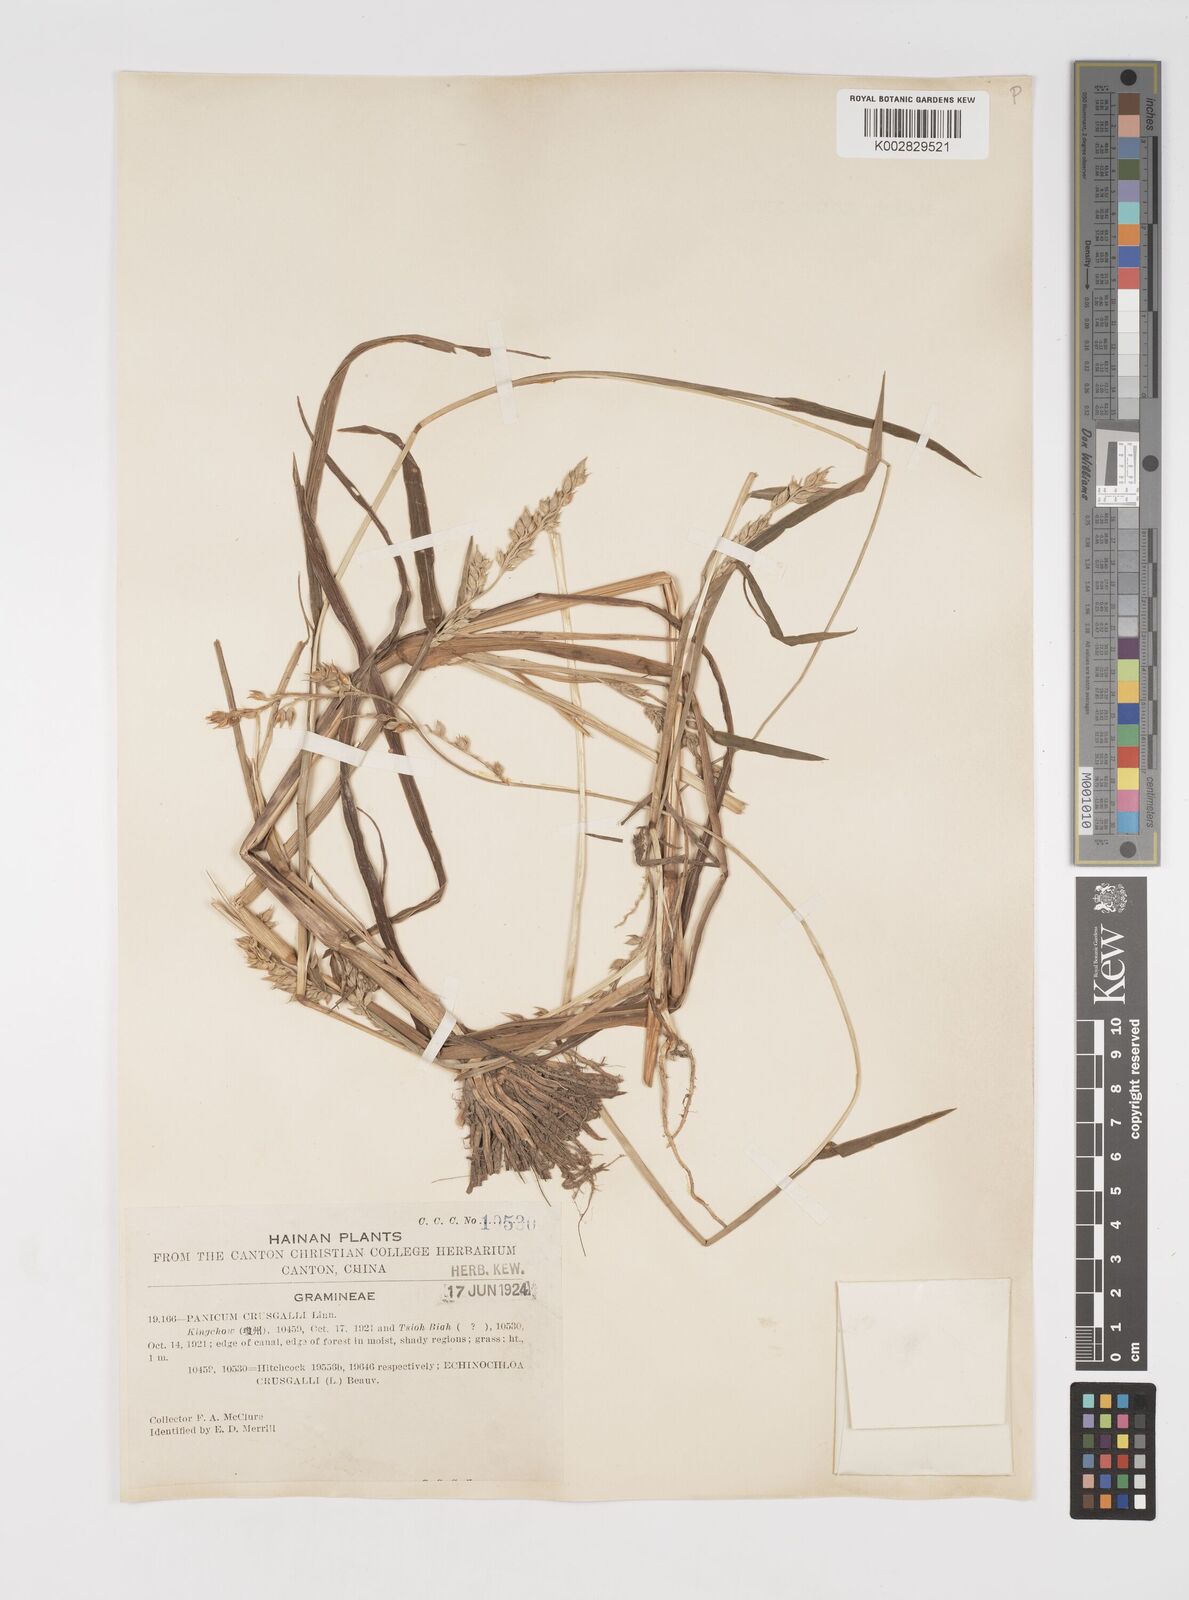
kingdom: Plantae
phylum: Tracheophyta
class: Liliopsida
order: Poales
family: Poaceae
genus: Echinochloa
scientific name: Echinochloa oryzoides
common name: Early water grass
